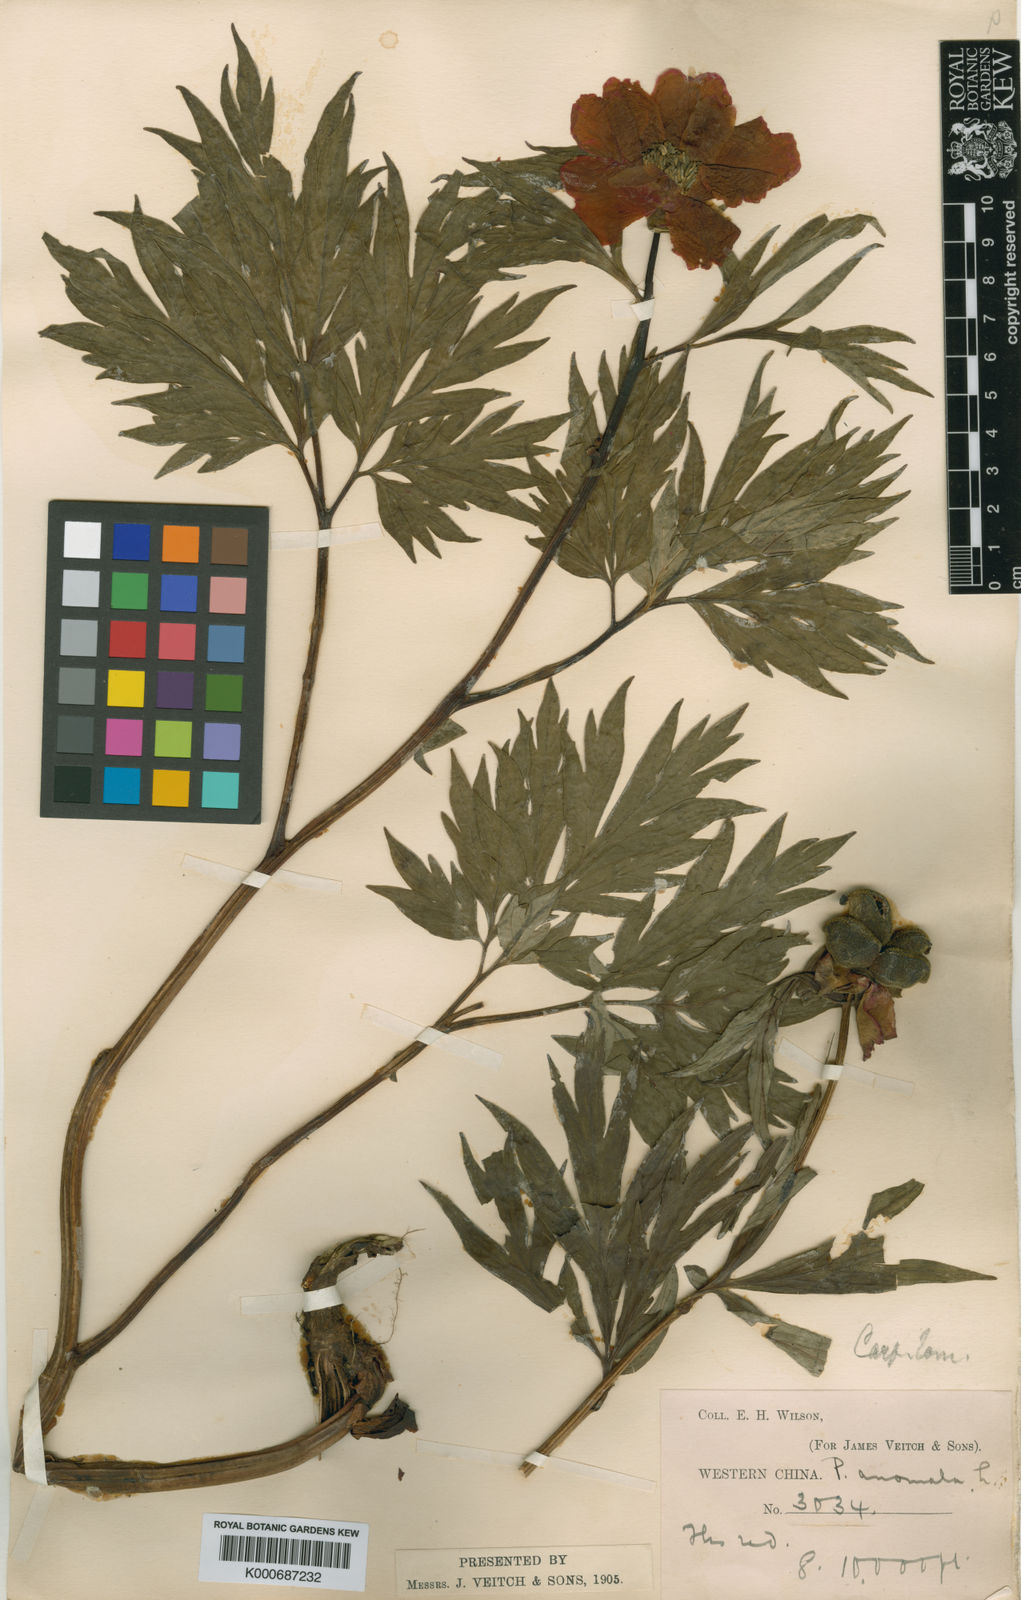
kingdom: Plantae
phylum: Tracheophyta
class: Magnoliopsida
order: Saxifragales
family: Paeoniaceae
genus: Paeonia
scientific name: Paeonia anomala
